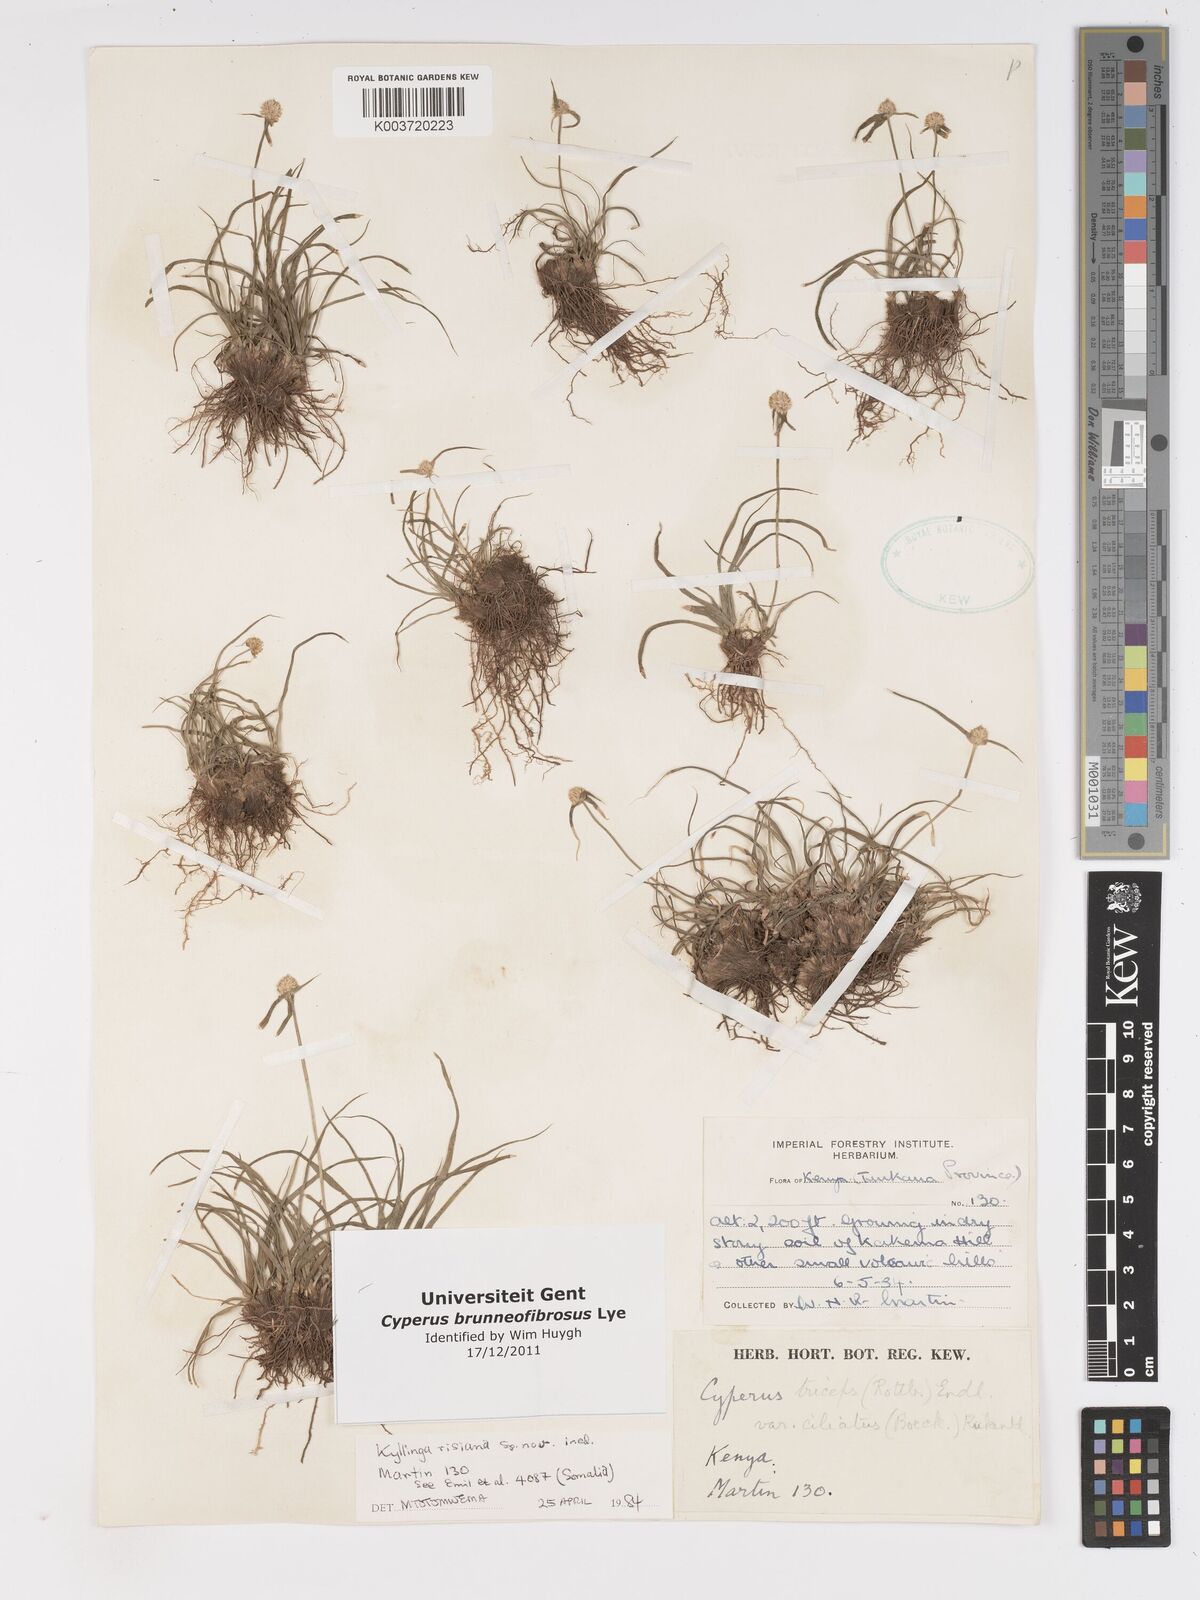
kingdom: Plantae
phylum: Tracheophyta
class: Liliopsida
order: Poales
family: Cyperaceae
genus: Cyperus
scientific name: Cyperus brunneofibrosus
